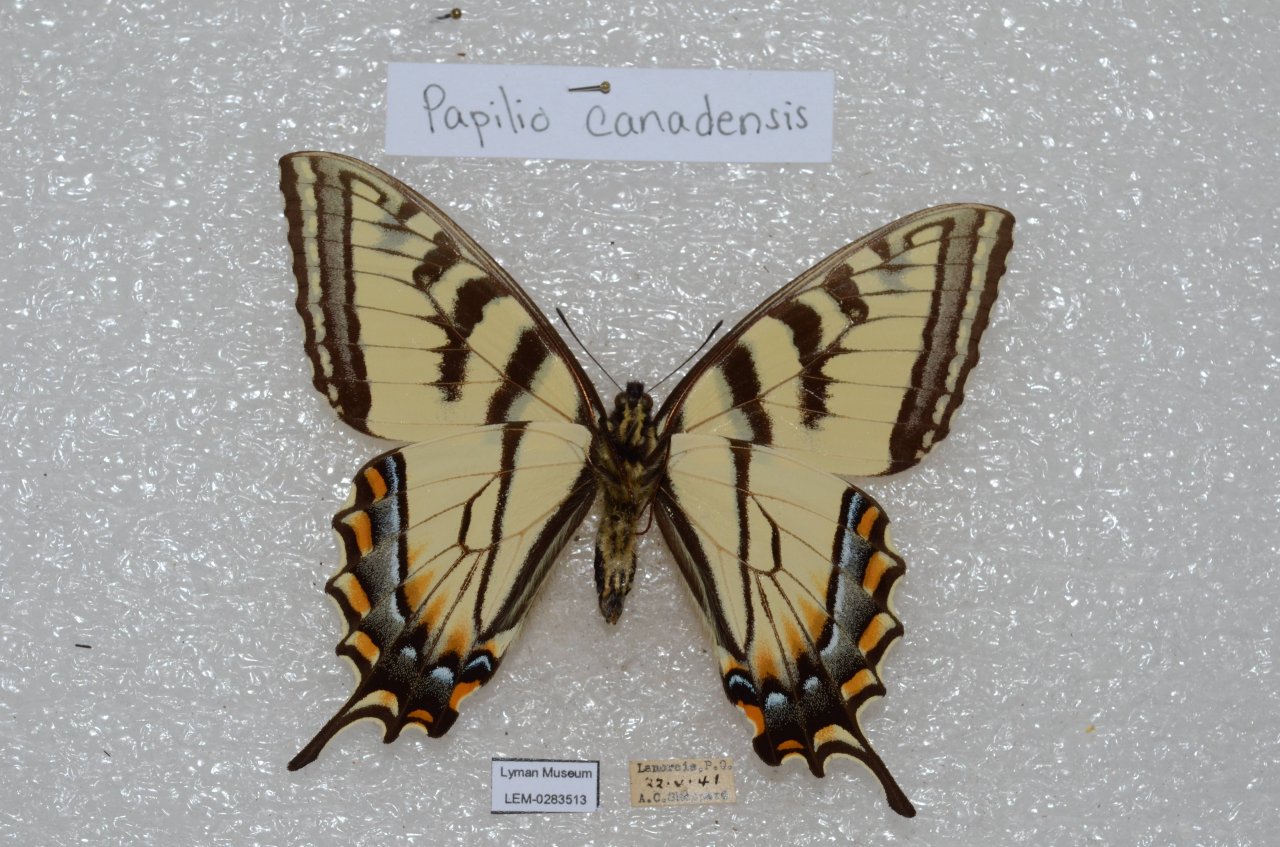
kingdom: Animalia
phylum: Arthropoda
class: Insecta
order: Lepidoptera
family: Papilionidae
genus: Pterourus
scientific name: Pterourus canadensis
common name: Canadian Tiger Swallowtail
